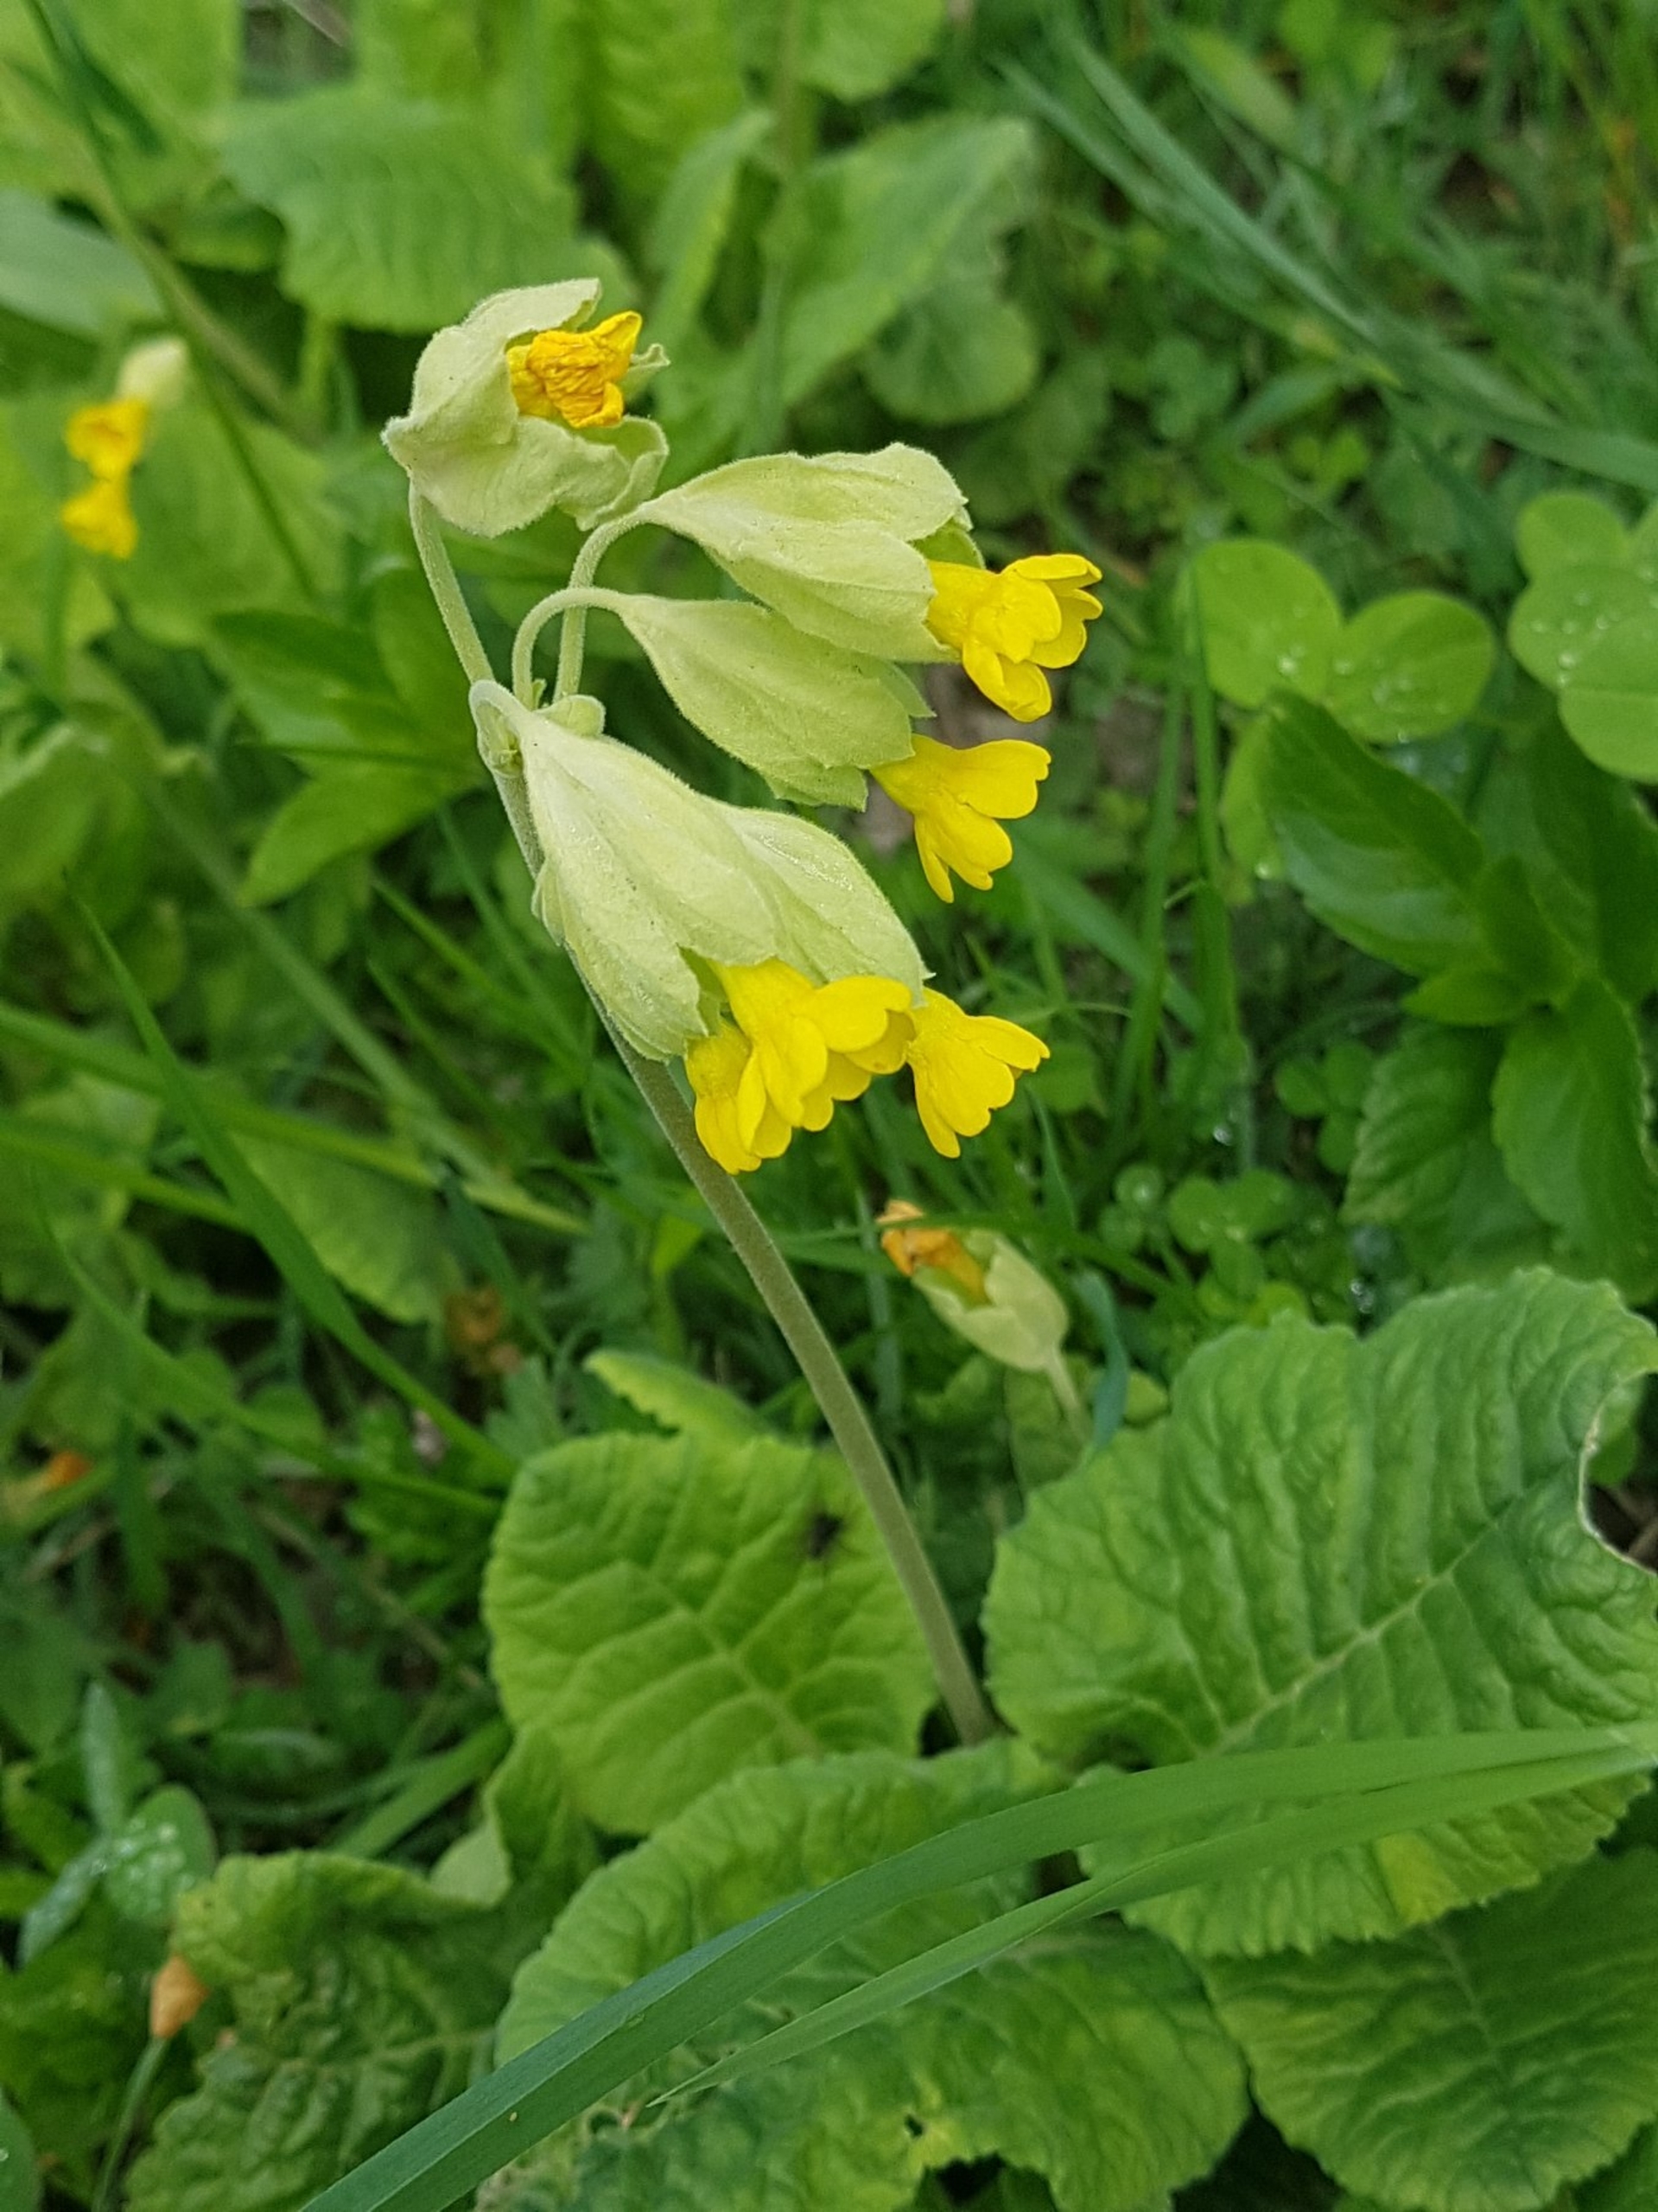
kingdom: Plantae
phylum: Tracheophyta
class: Magnoliopsida
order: Ericales
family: Primulaceae
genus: Primula
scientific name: Primula veris
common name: Hulkravet kodriver
